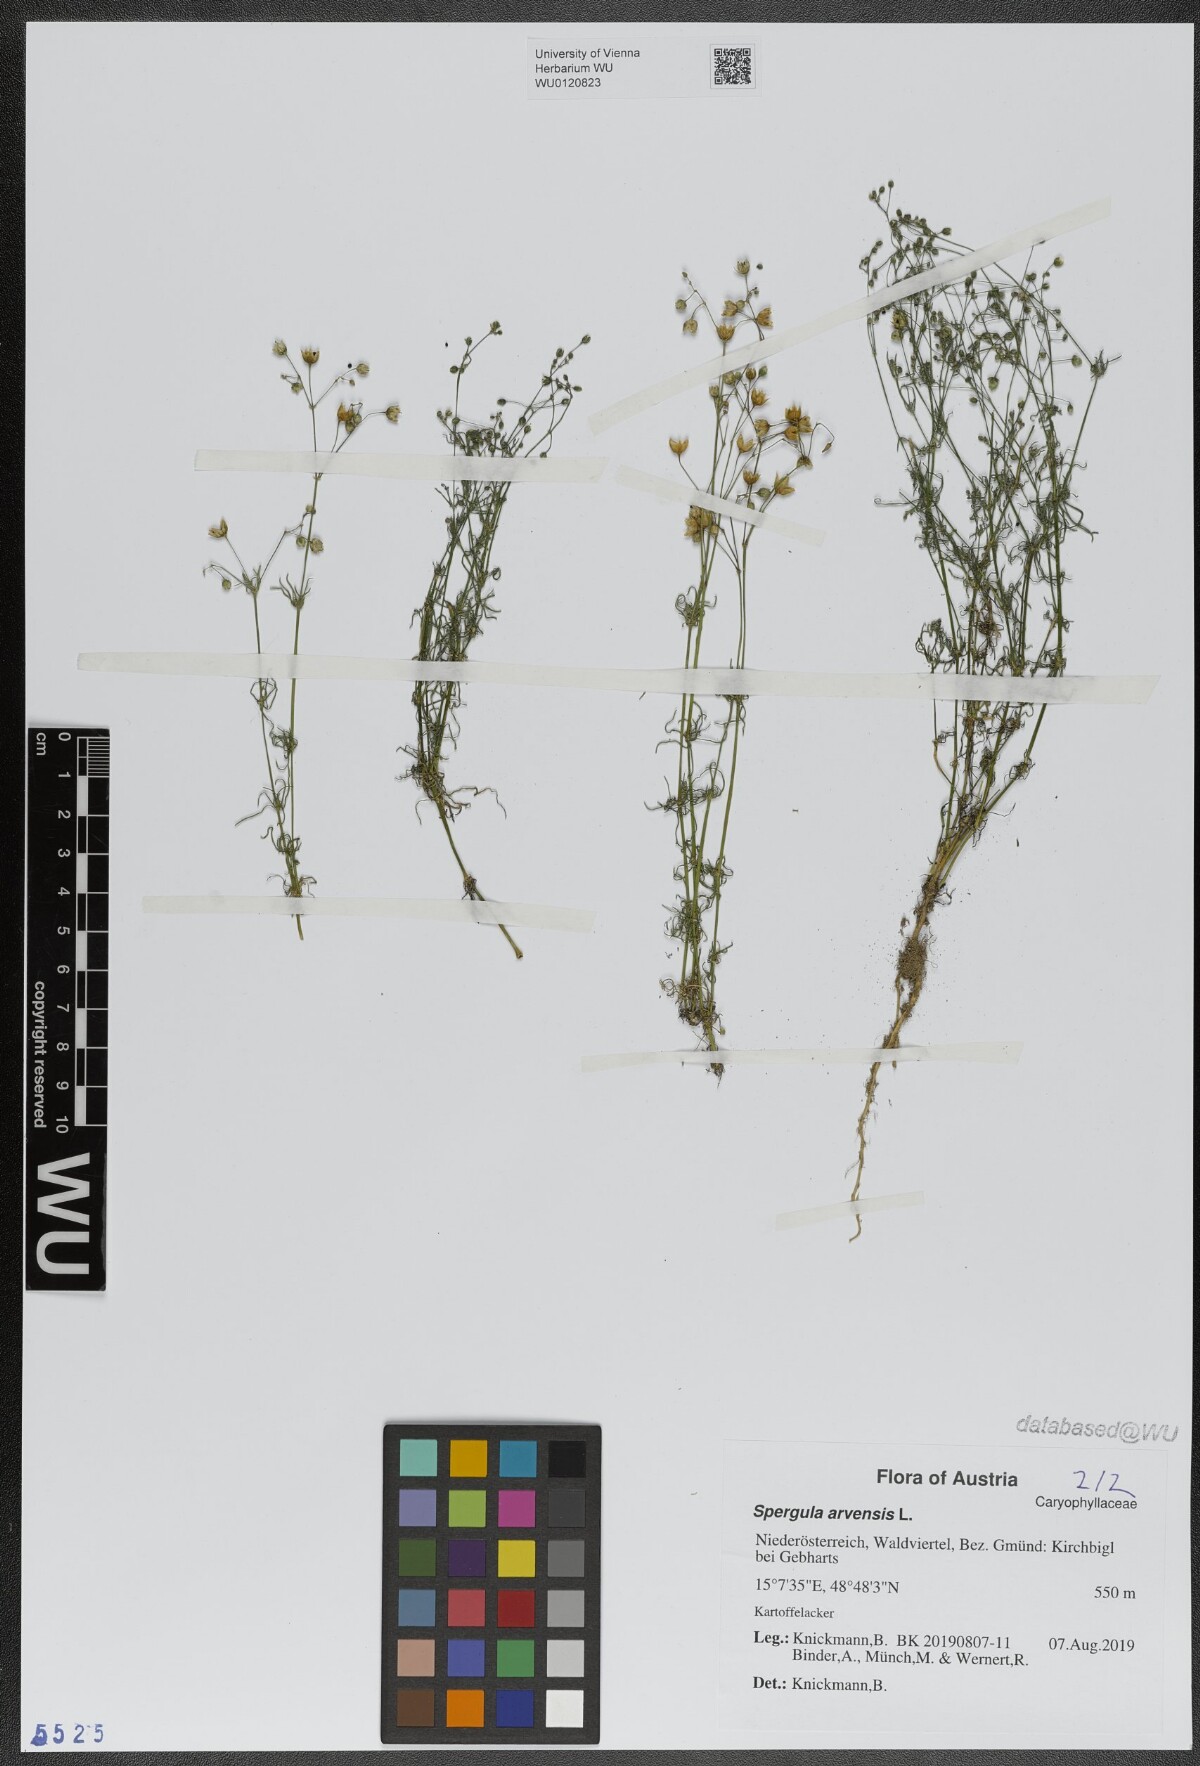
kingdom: Plantae
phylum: Tracheophyta
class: Magnoliopsida
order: Caryophyllales
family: Caryophyllaceae
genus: Spergula
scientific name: Spergula arvensis
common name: Corn spurrey
